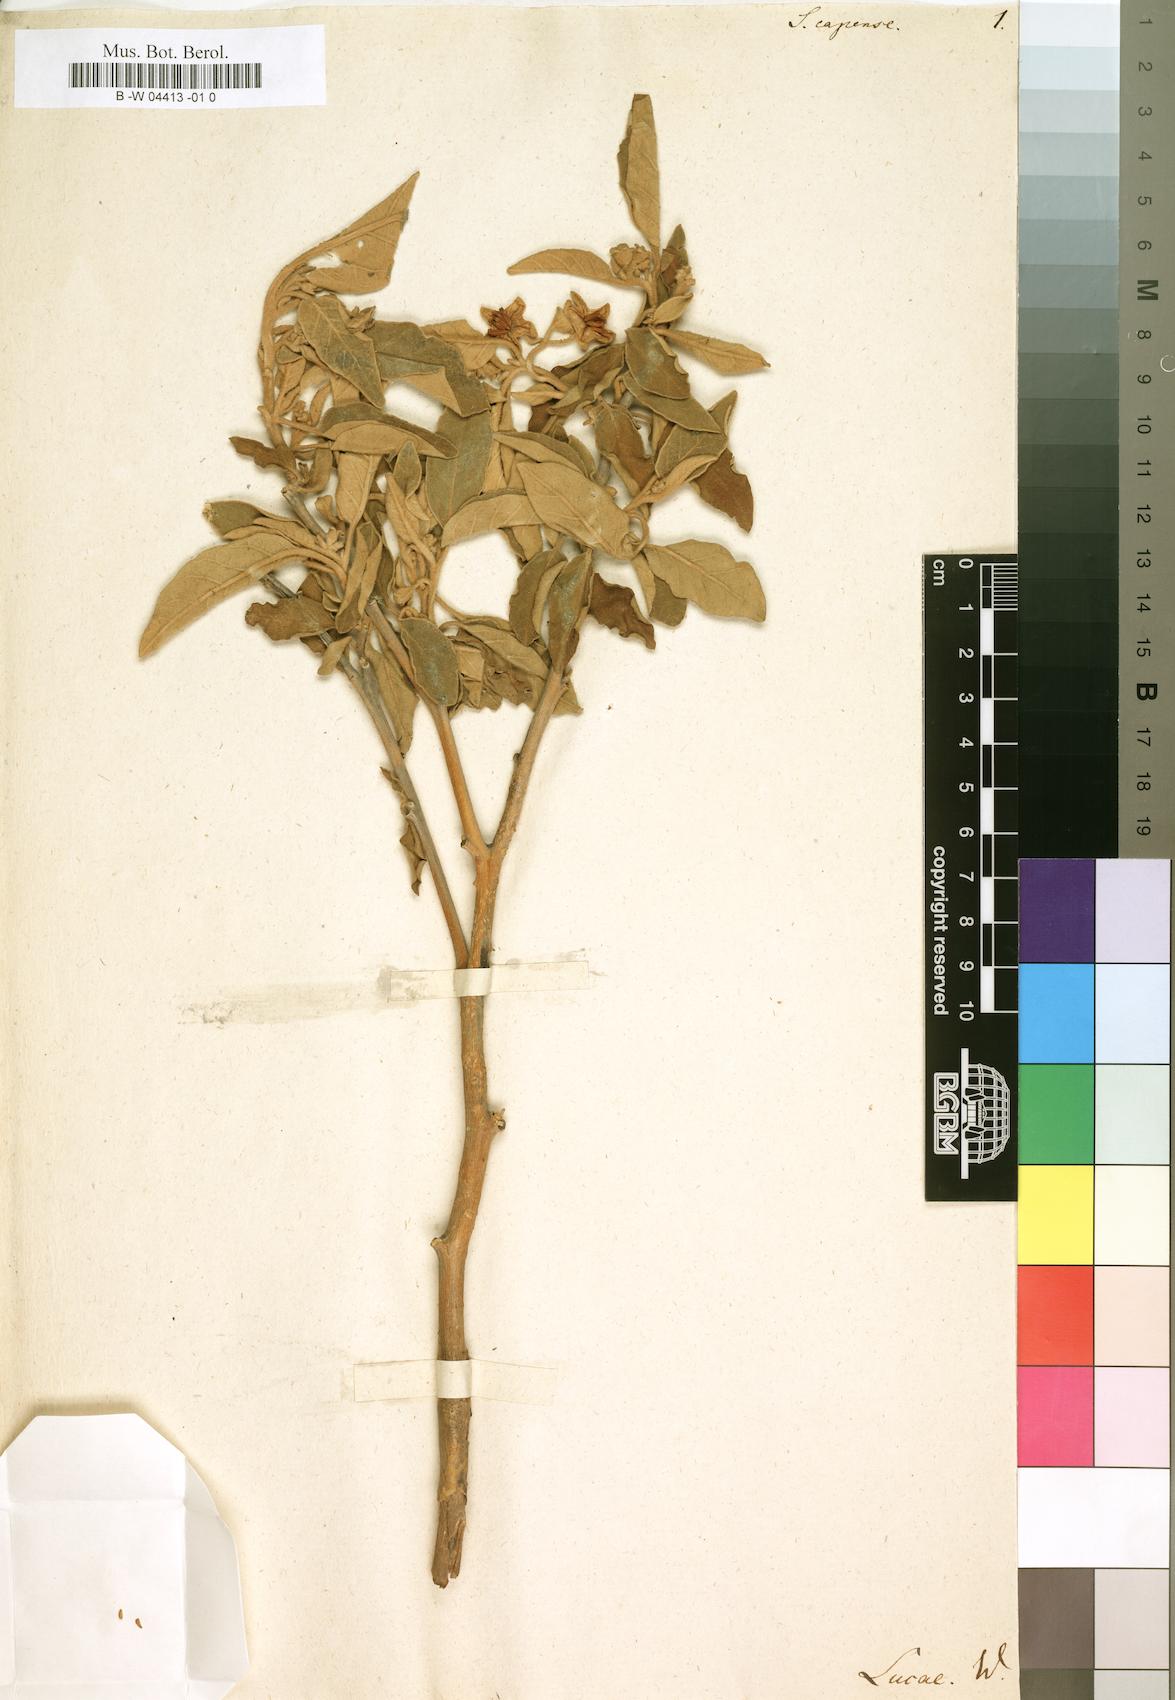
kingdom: Plantae
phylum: Tracheophyta
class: Magnoliopsida
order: Solanales
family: Solanaceae
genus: Solanum
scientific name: Solanum capense
